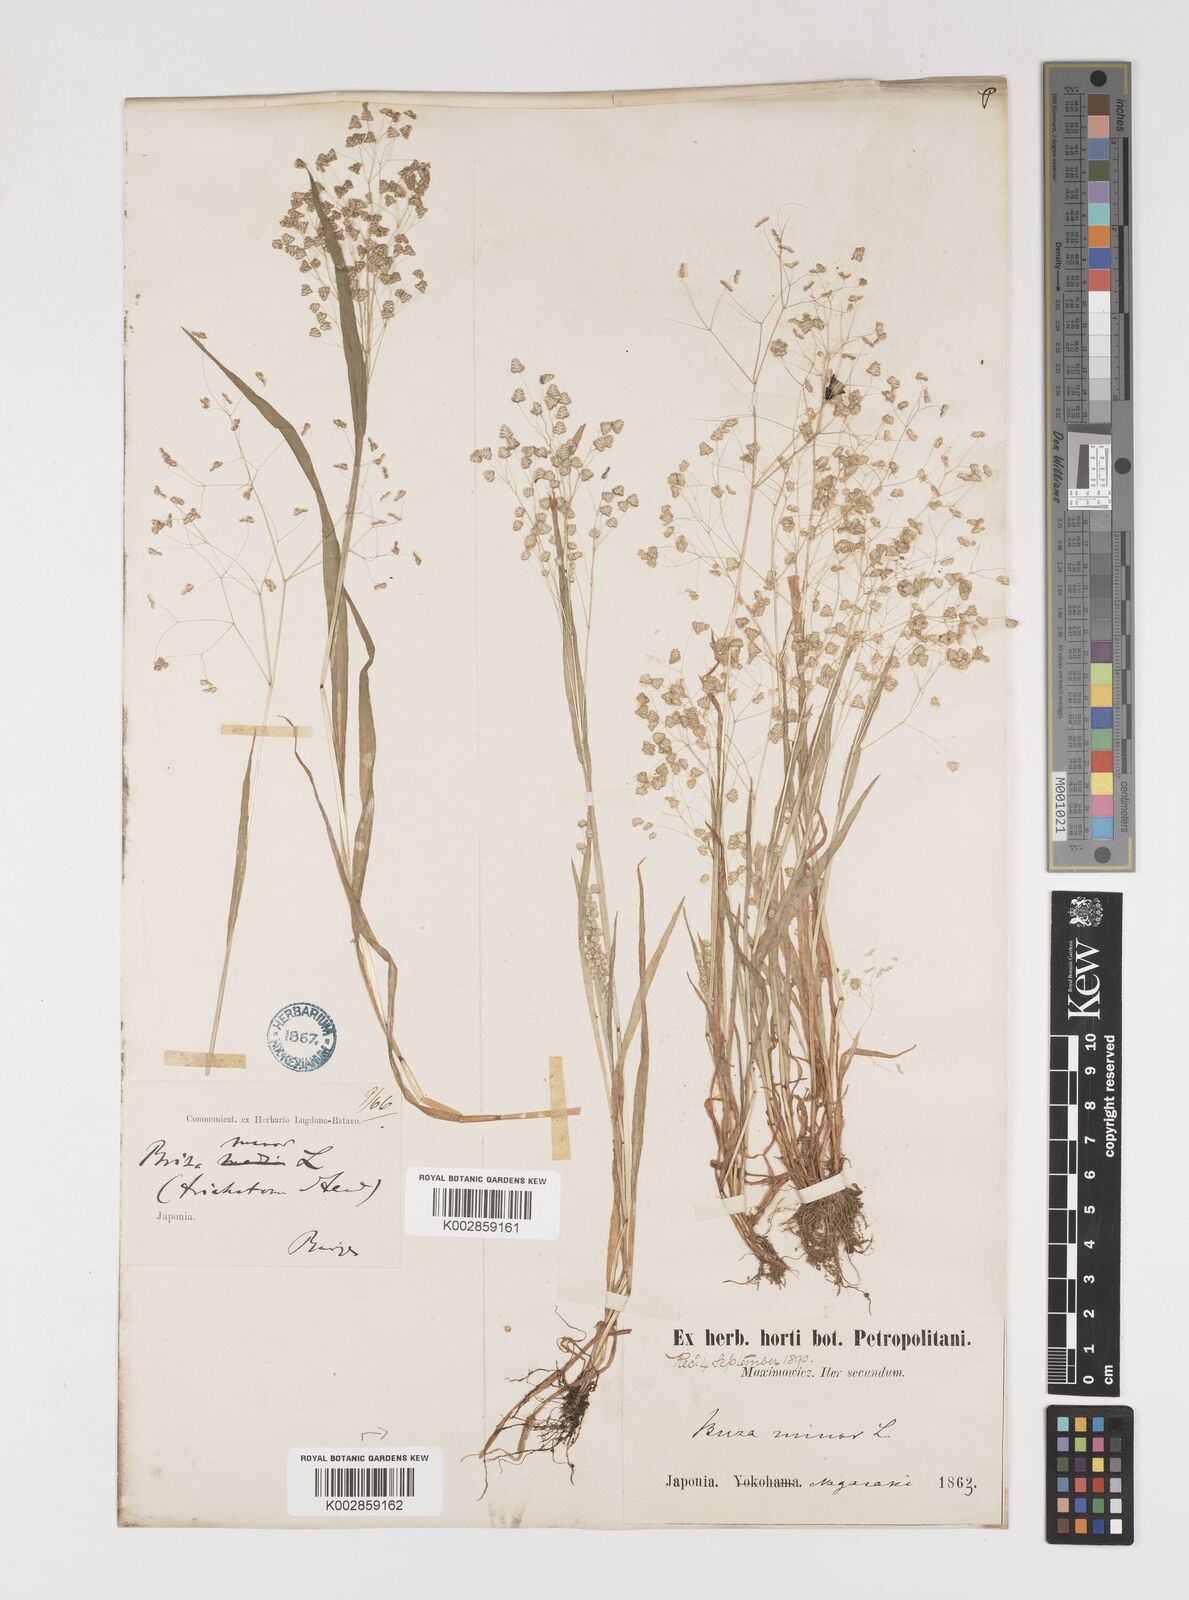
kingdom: Plantae
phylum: Tracheophyta
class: Liliopsida
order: Poales
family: Poaceae
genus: Briza
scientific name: Briza minor
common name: Lesser quaking-grass
